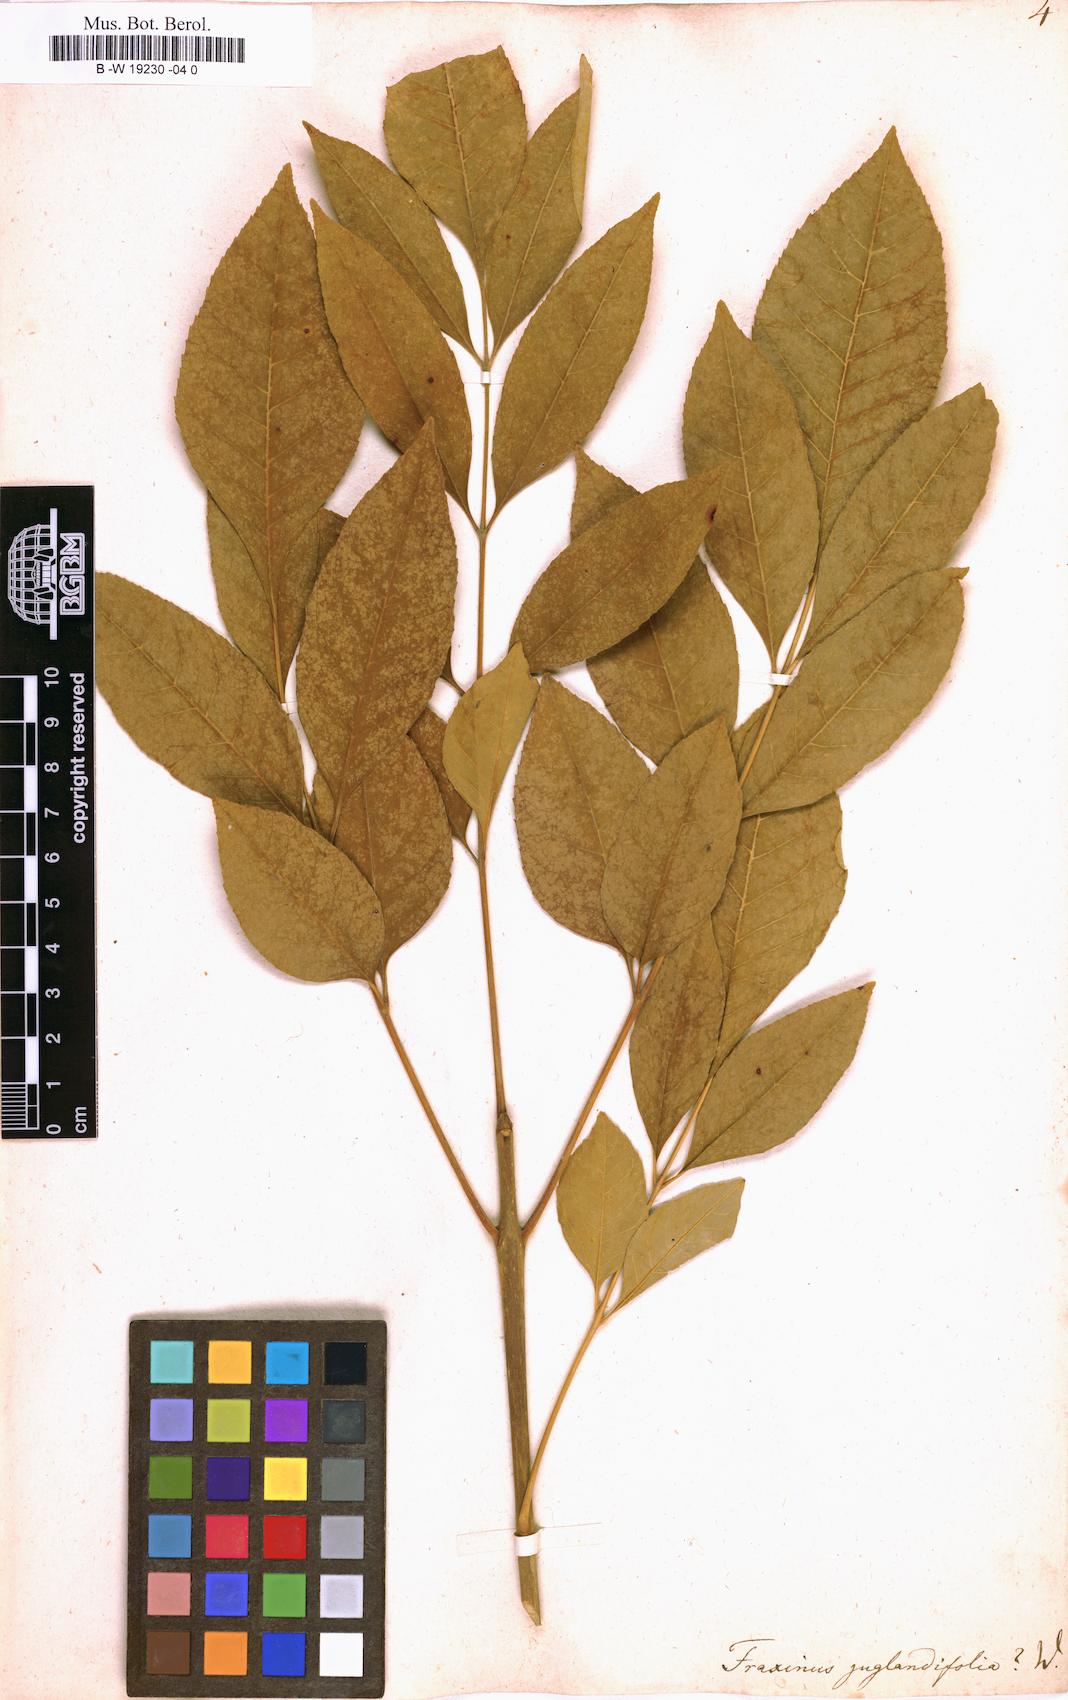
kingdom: Plantae
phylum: Tracheophyta
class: Magnoliopsida
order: Lamiales
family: Oleaceae
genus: Fraxinus
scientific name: Fraxinus americana
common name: White ash
